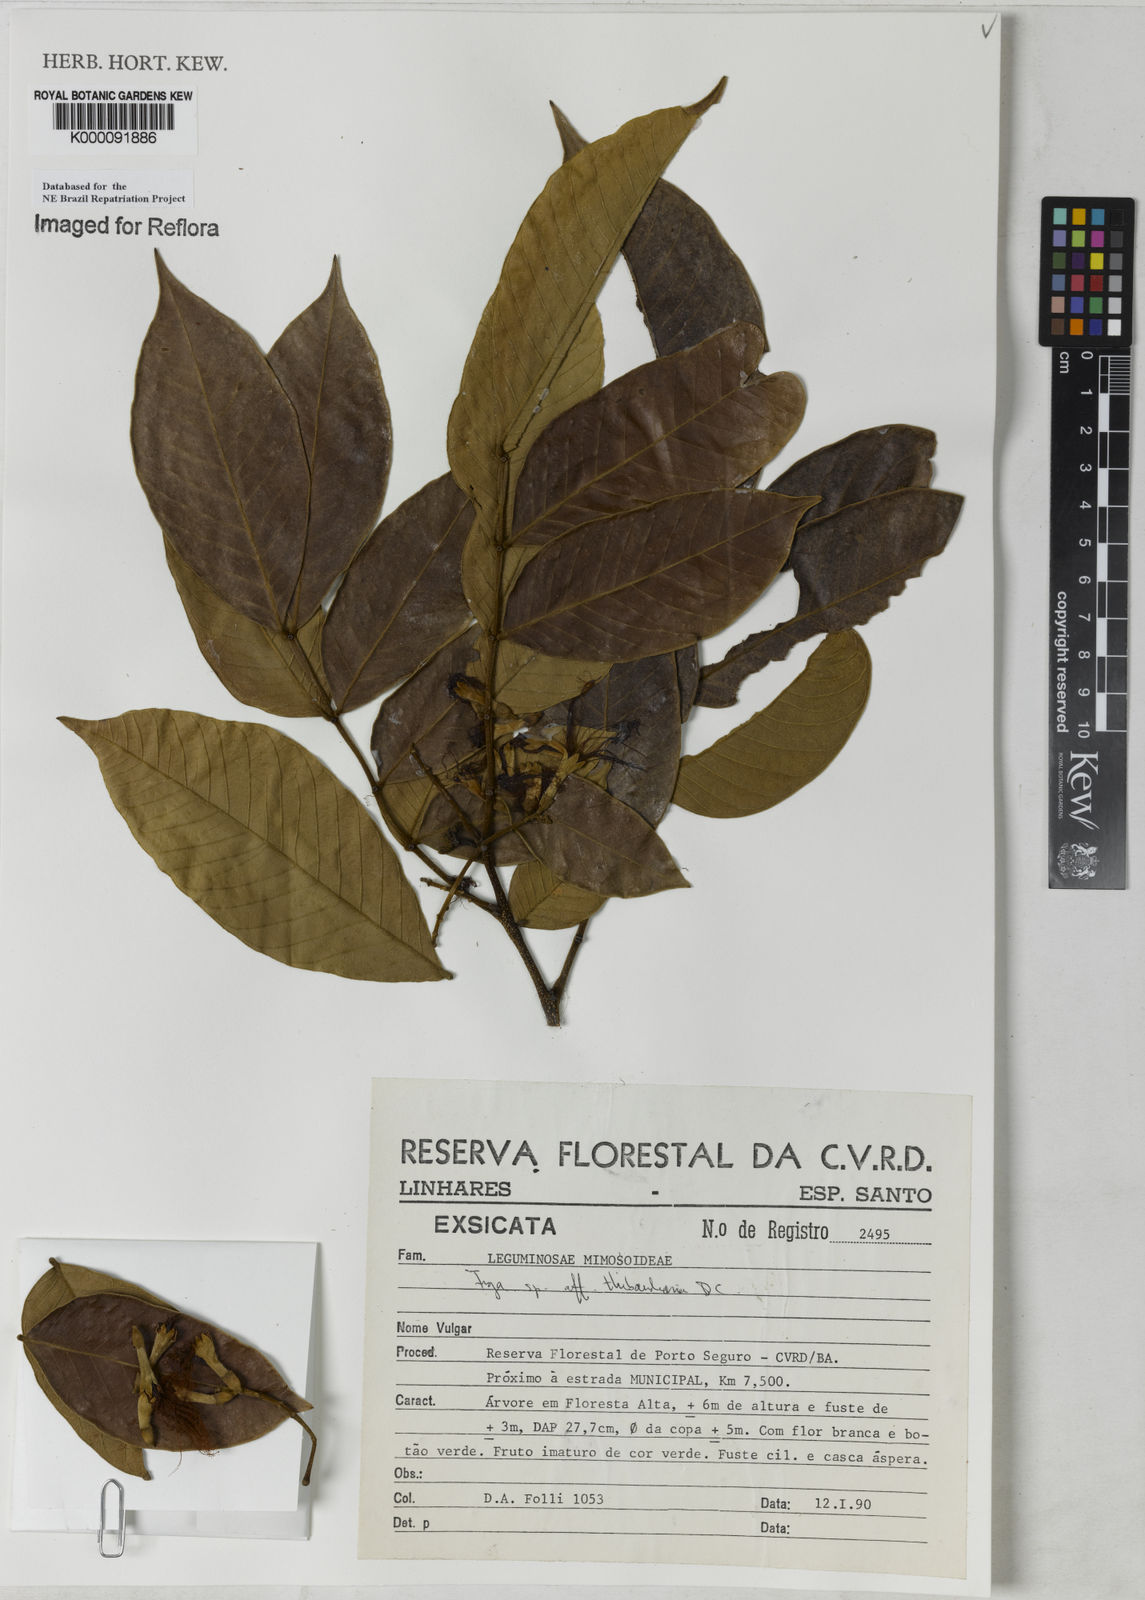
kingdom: Plantae
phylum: Tracheophyta
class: Magnoliopsida
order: Fabales
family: Fabaceae
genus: Inga
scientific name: Inga thibaudiana
